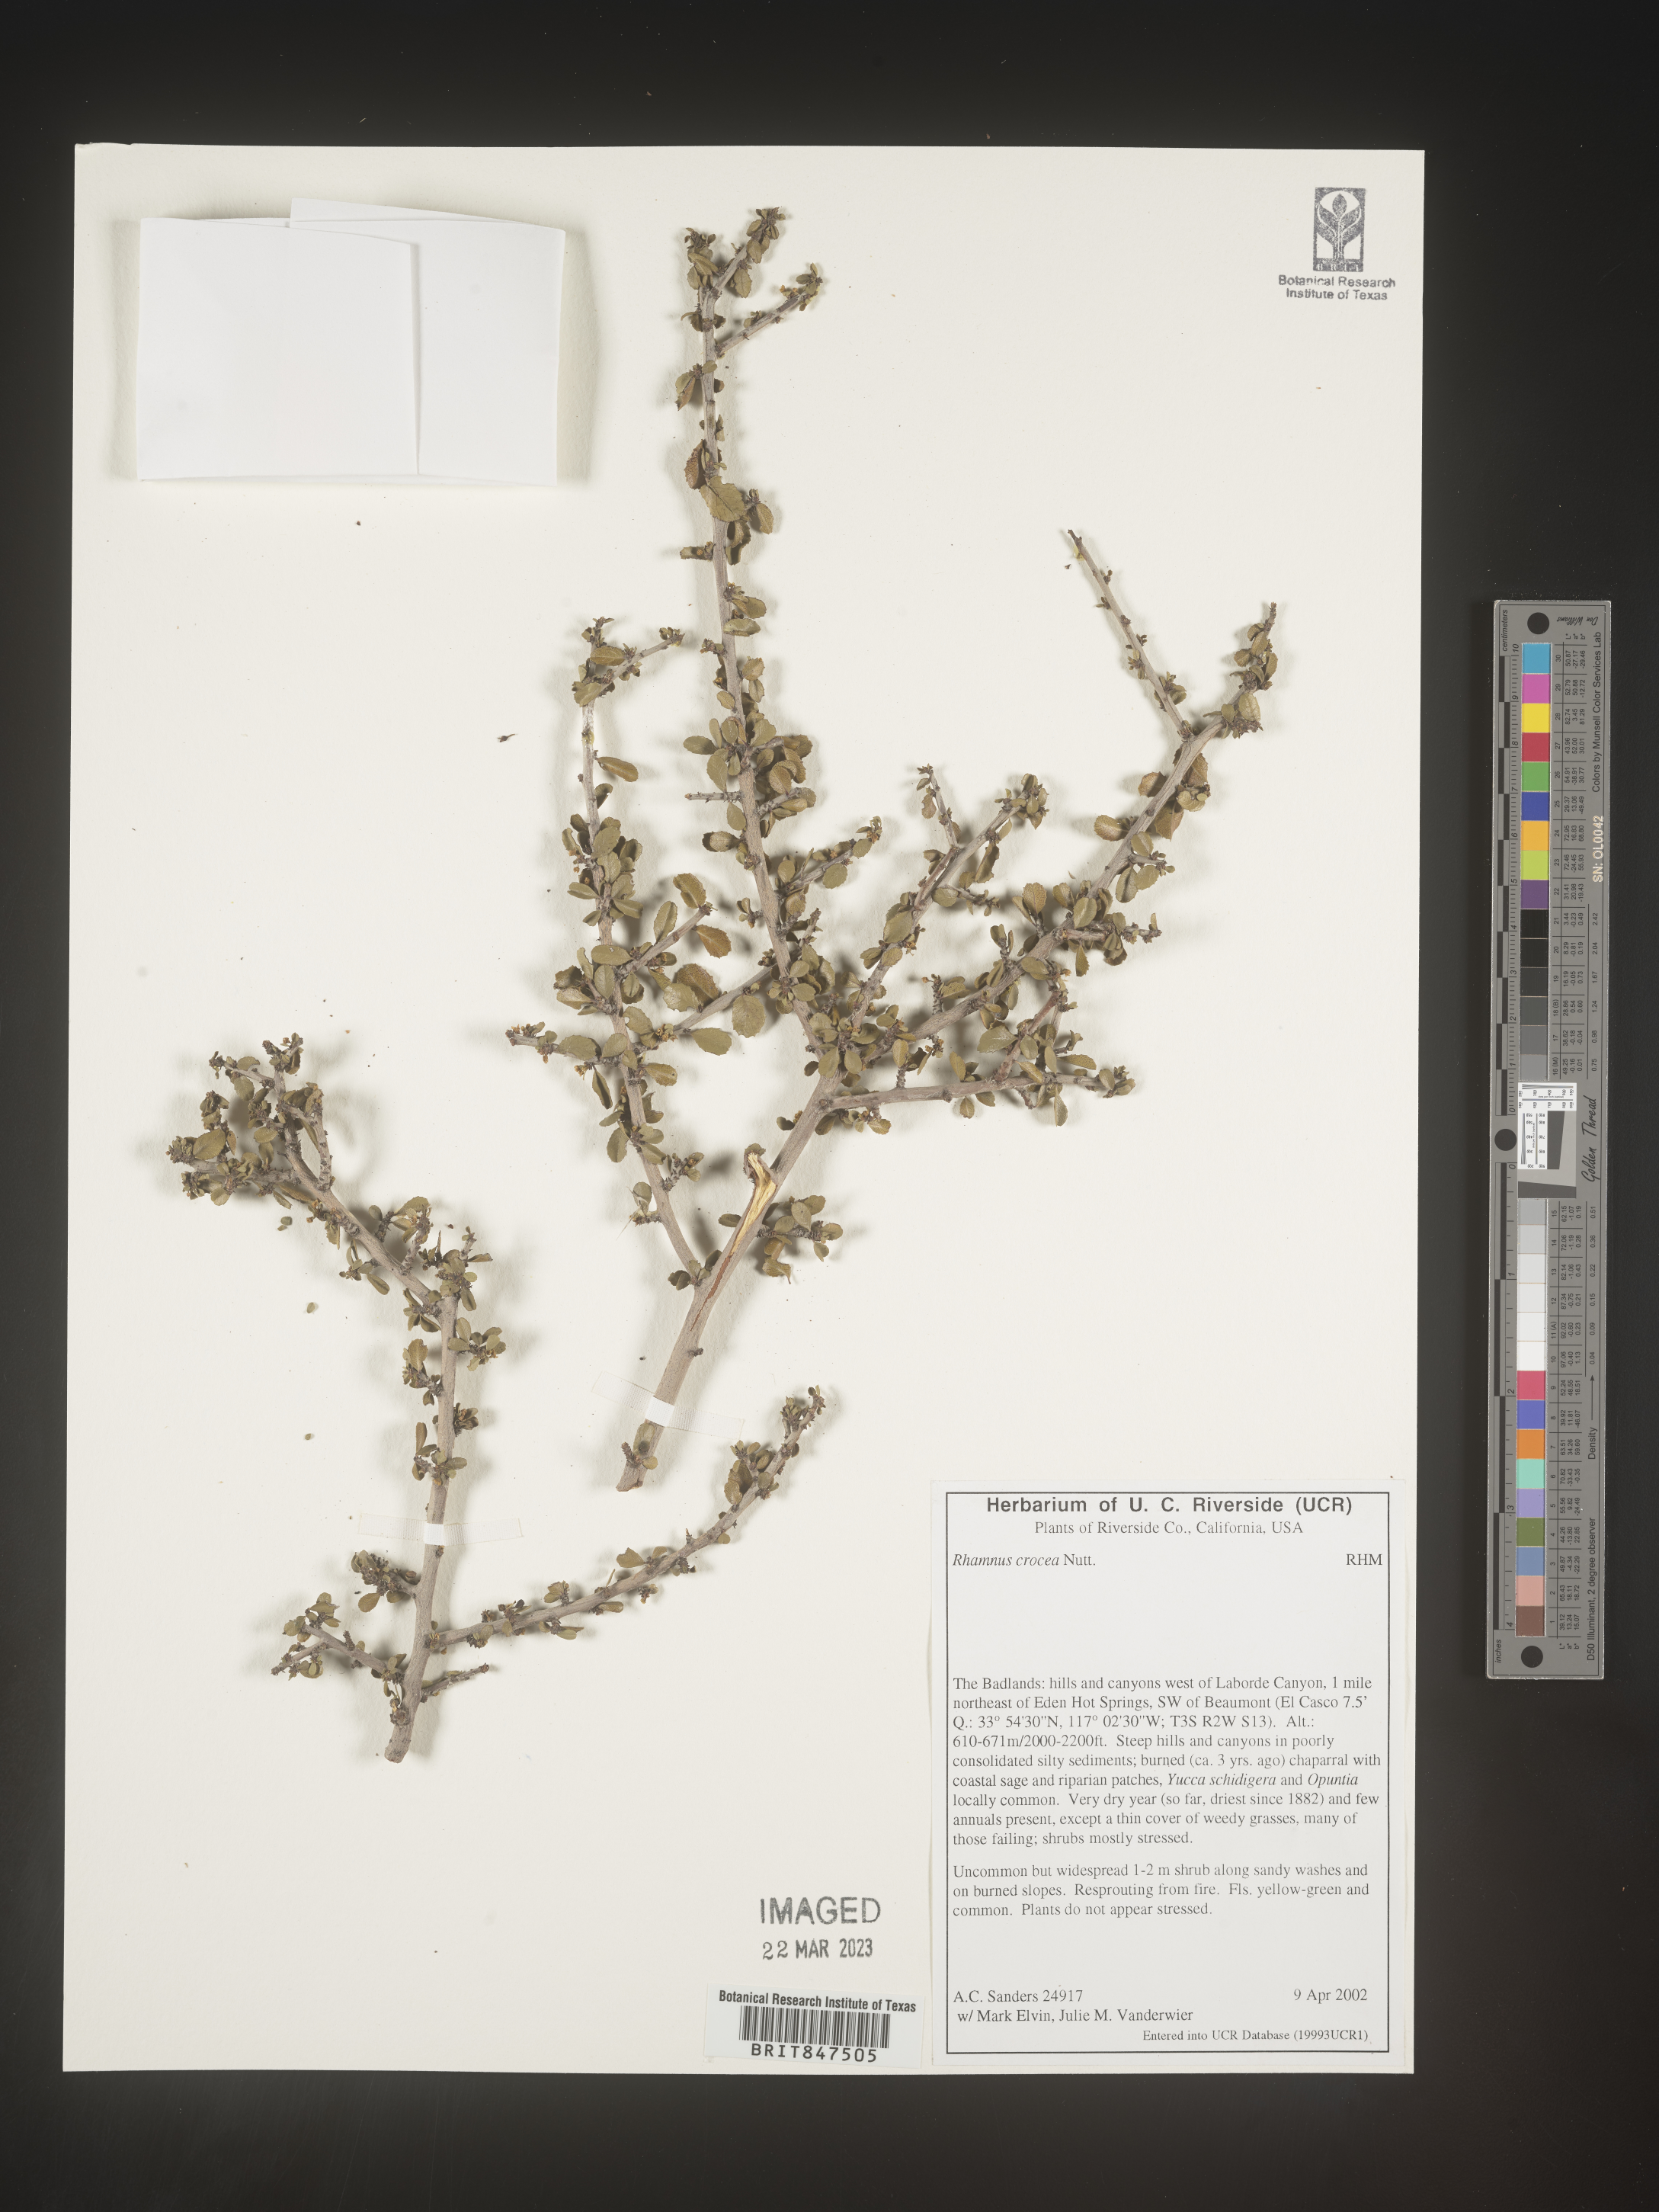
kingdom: Plantae
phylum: Tracheophyta
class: Magnoliopsida
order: Rosales
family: Rhamnaceae
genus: Endotropis
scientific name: Endotropis crocea
